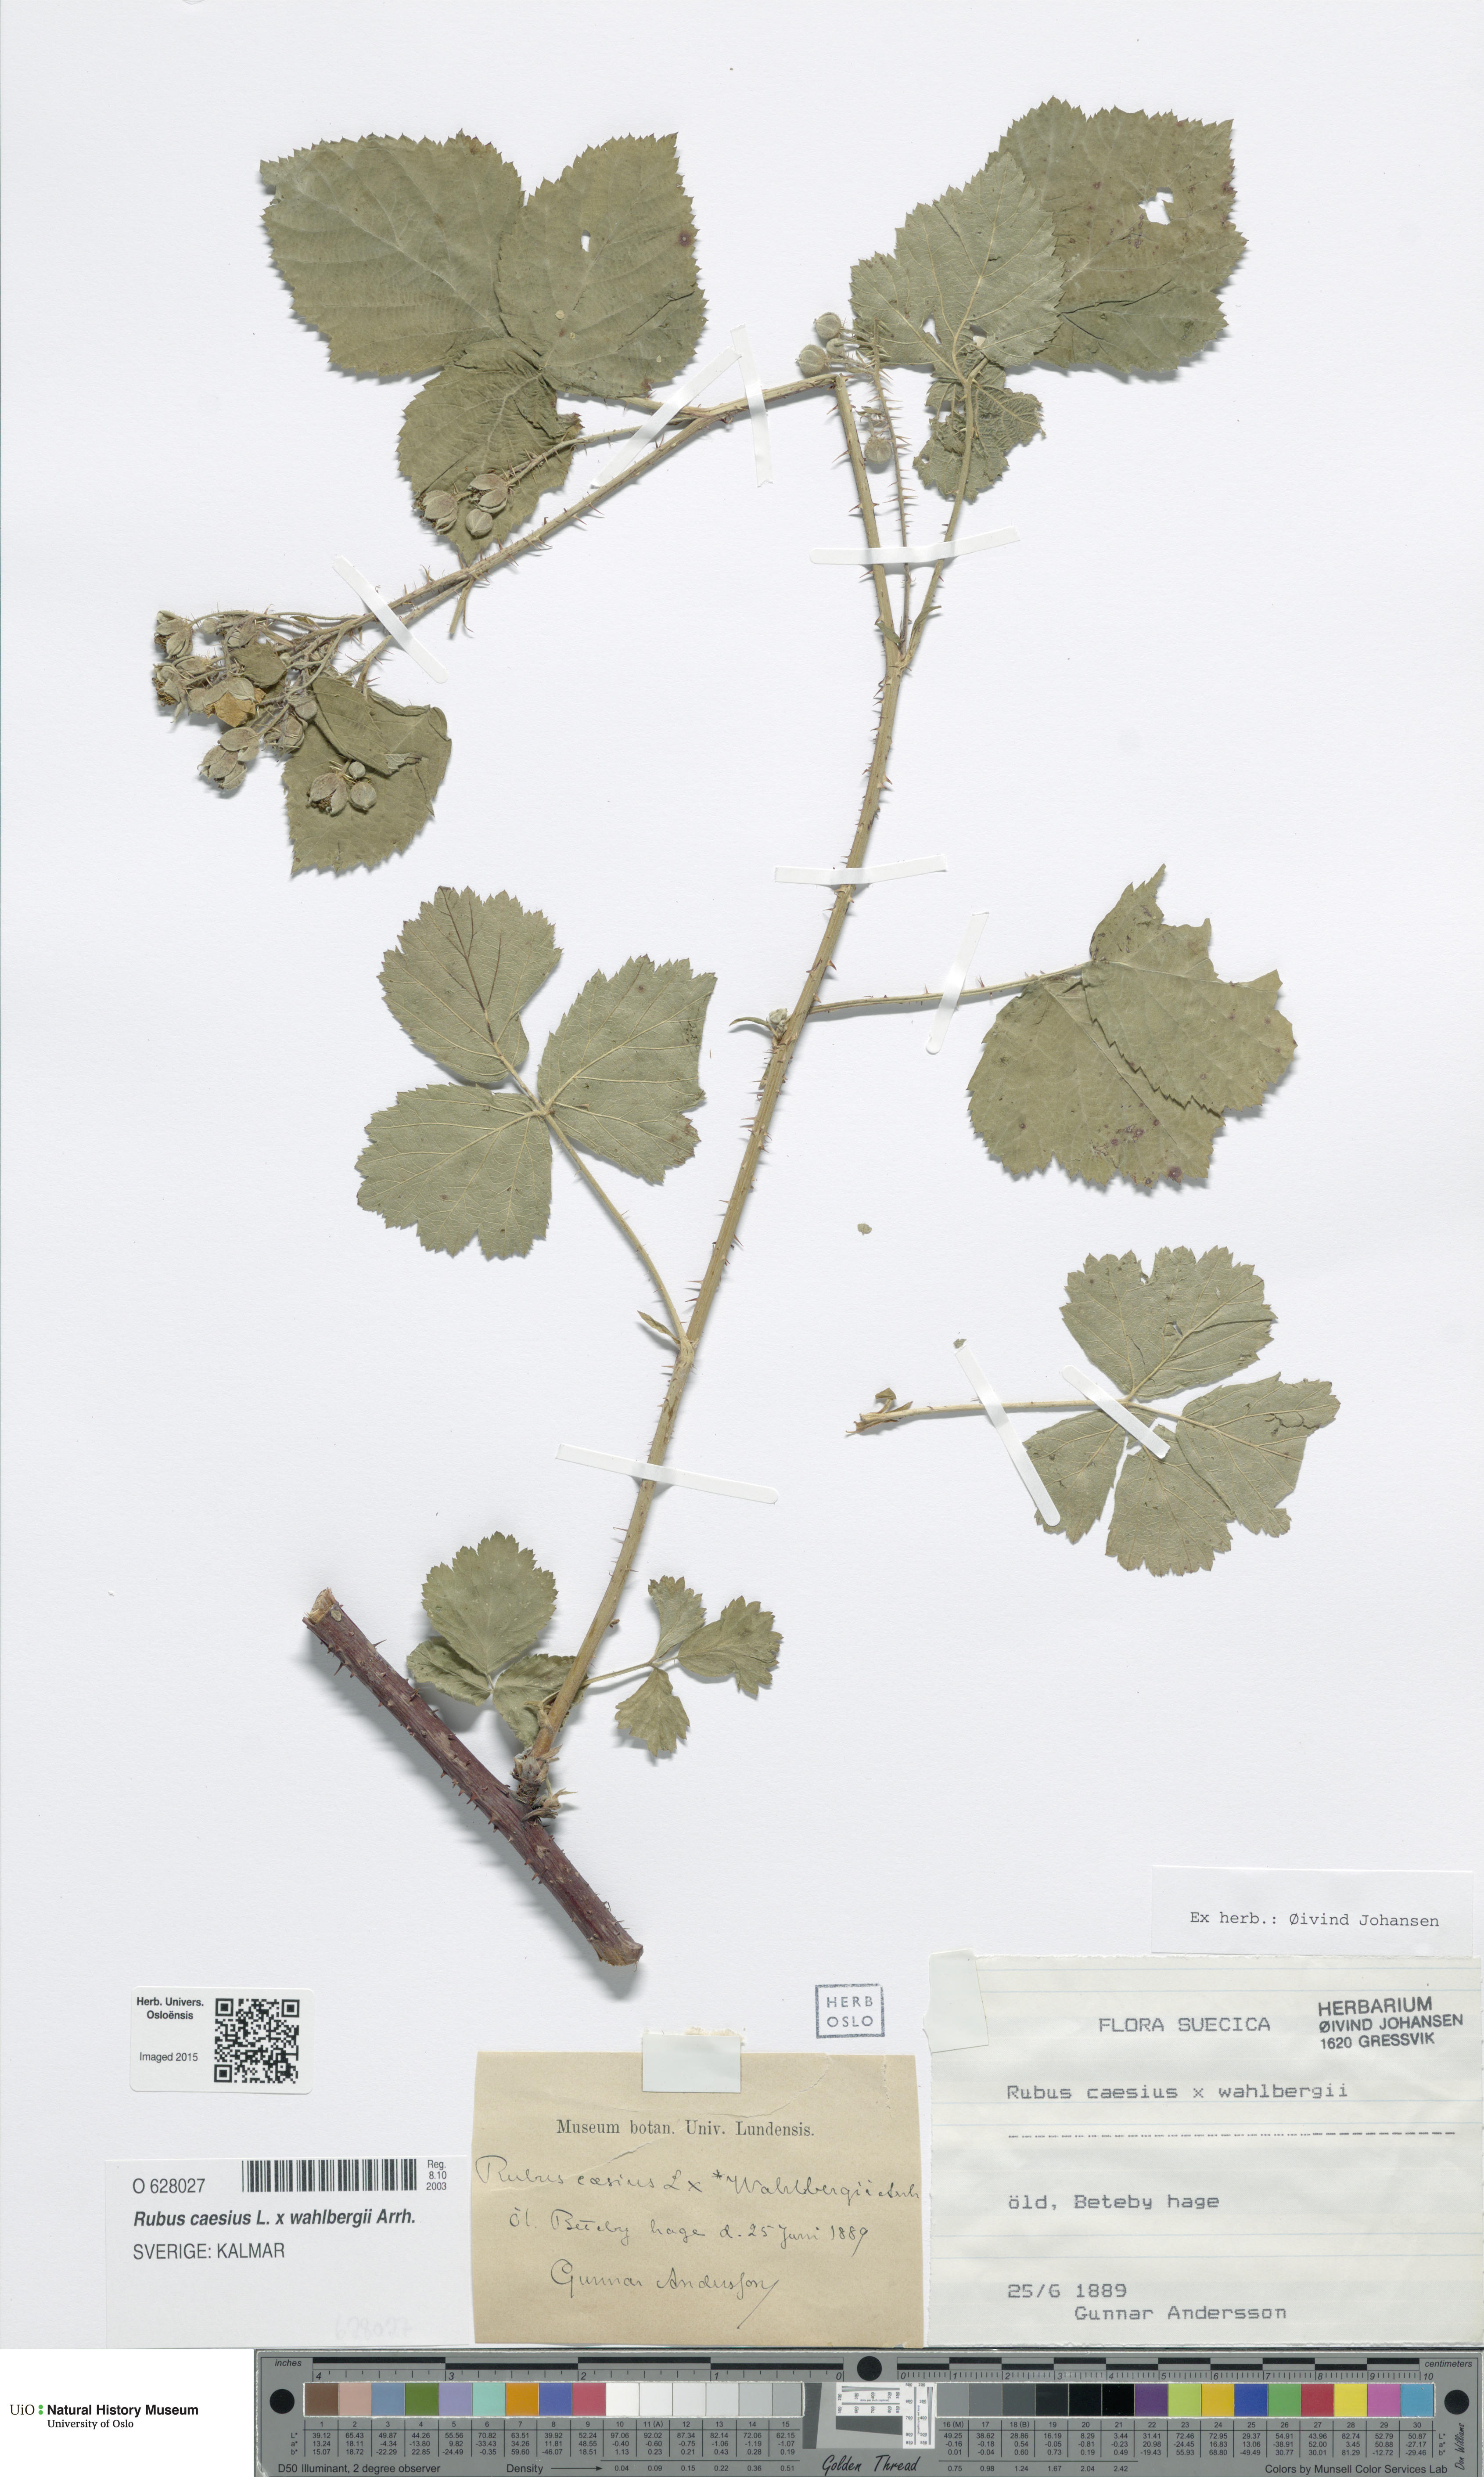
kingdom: Plantae
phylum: Tracheophyta
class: Magnoliopsida
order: Rosales
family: Rosaceae
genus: Rubus
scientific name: Rubus
